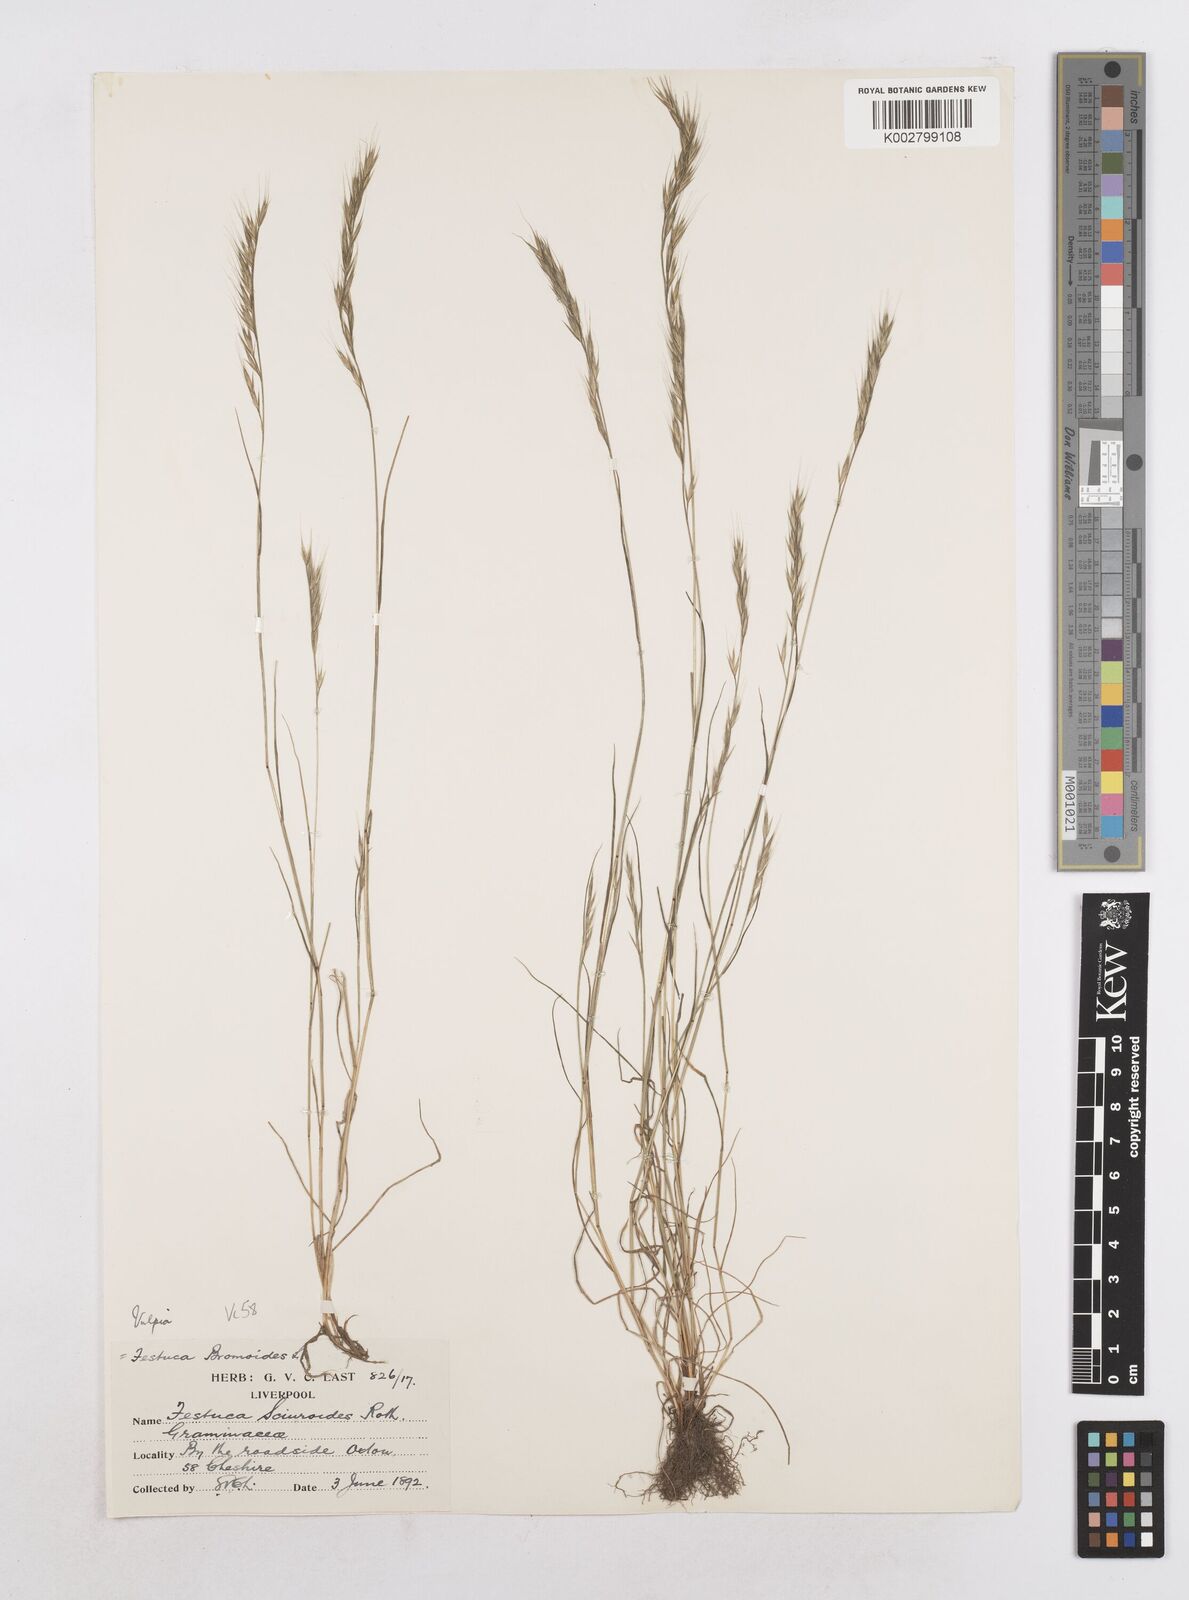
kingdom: Plantae
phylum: Tracheophyta
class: Liliopsida
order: Poales
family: Poaceae
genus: Festuca
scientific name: Festuca bromoides
